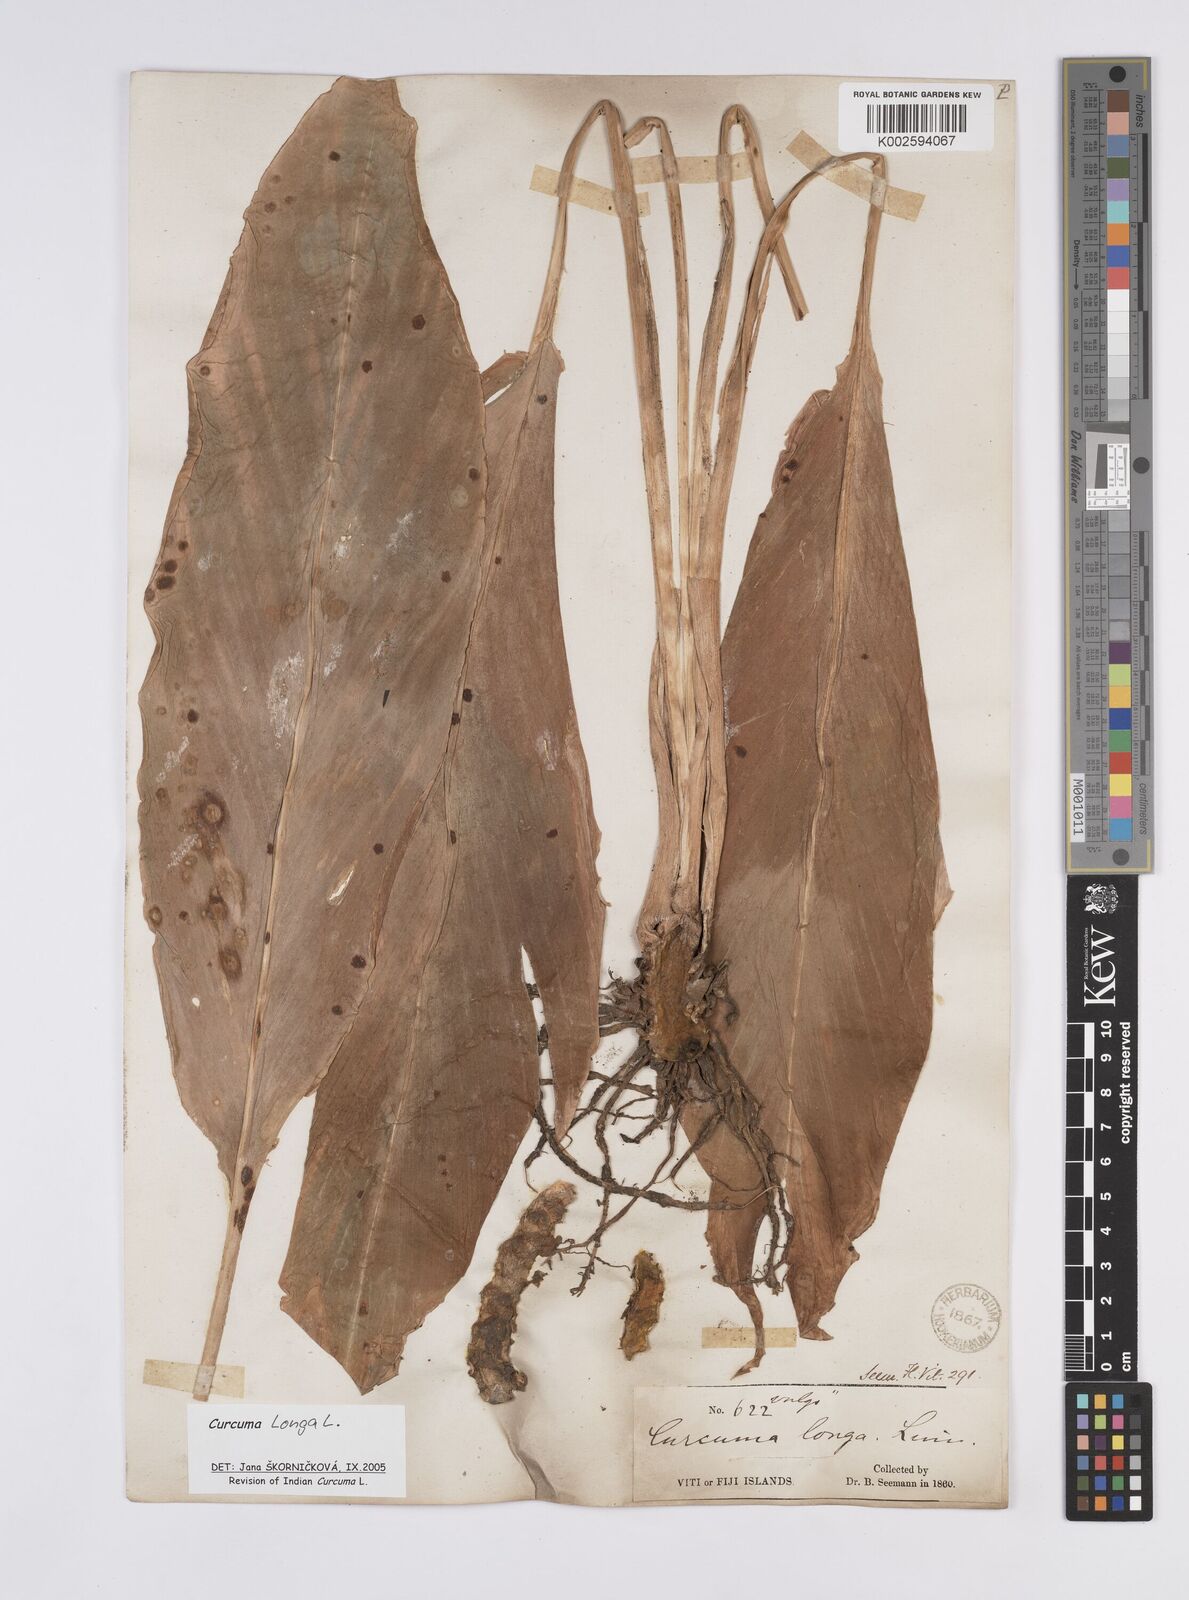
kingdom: Plantae
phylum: Tracheophyta
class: Liliopsida
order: Zingiberales
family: Zingiberaceae
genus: Curcuma
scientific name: Curcuma longa
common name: Turmeric
